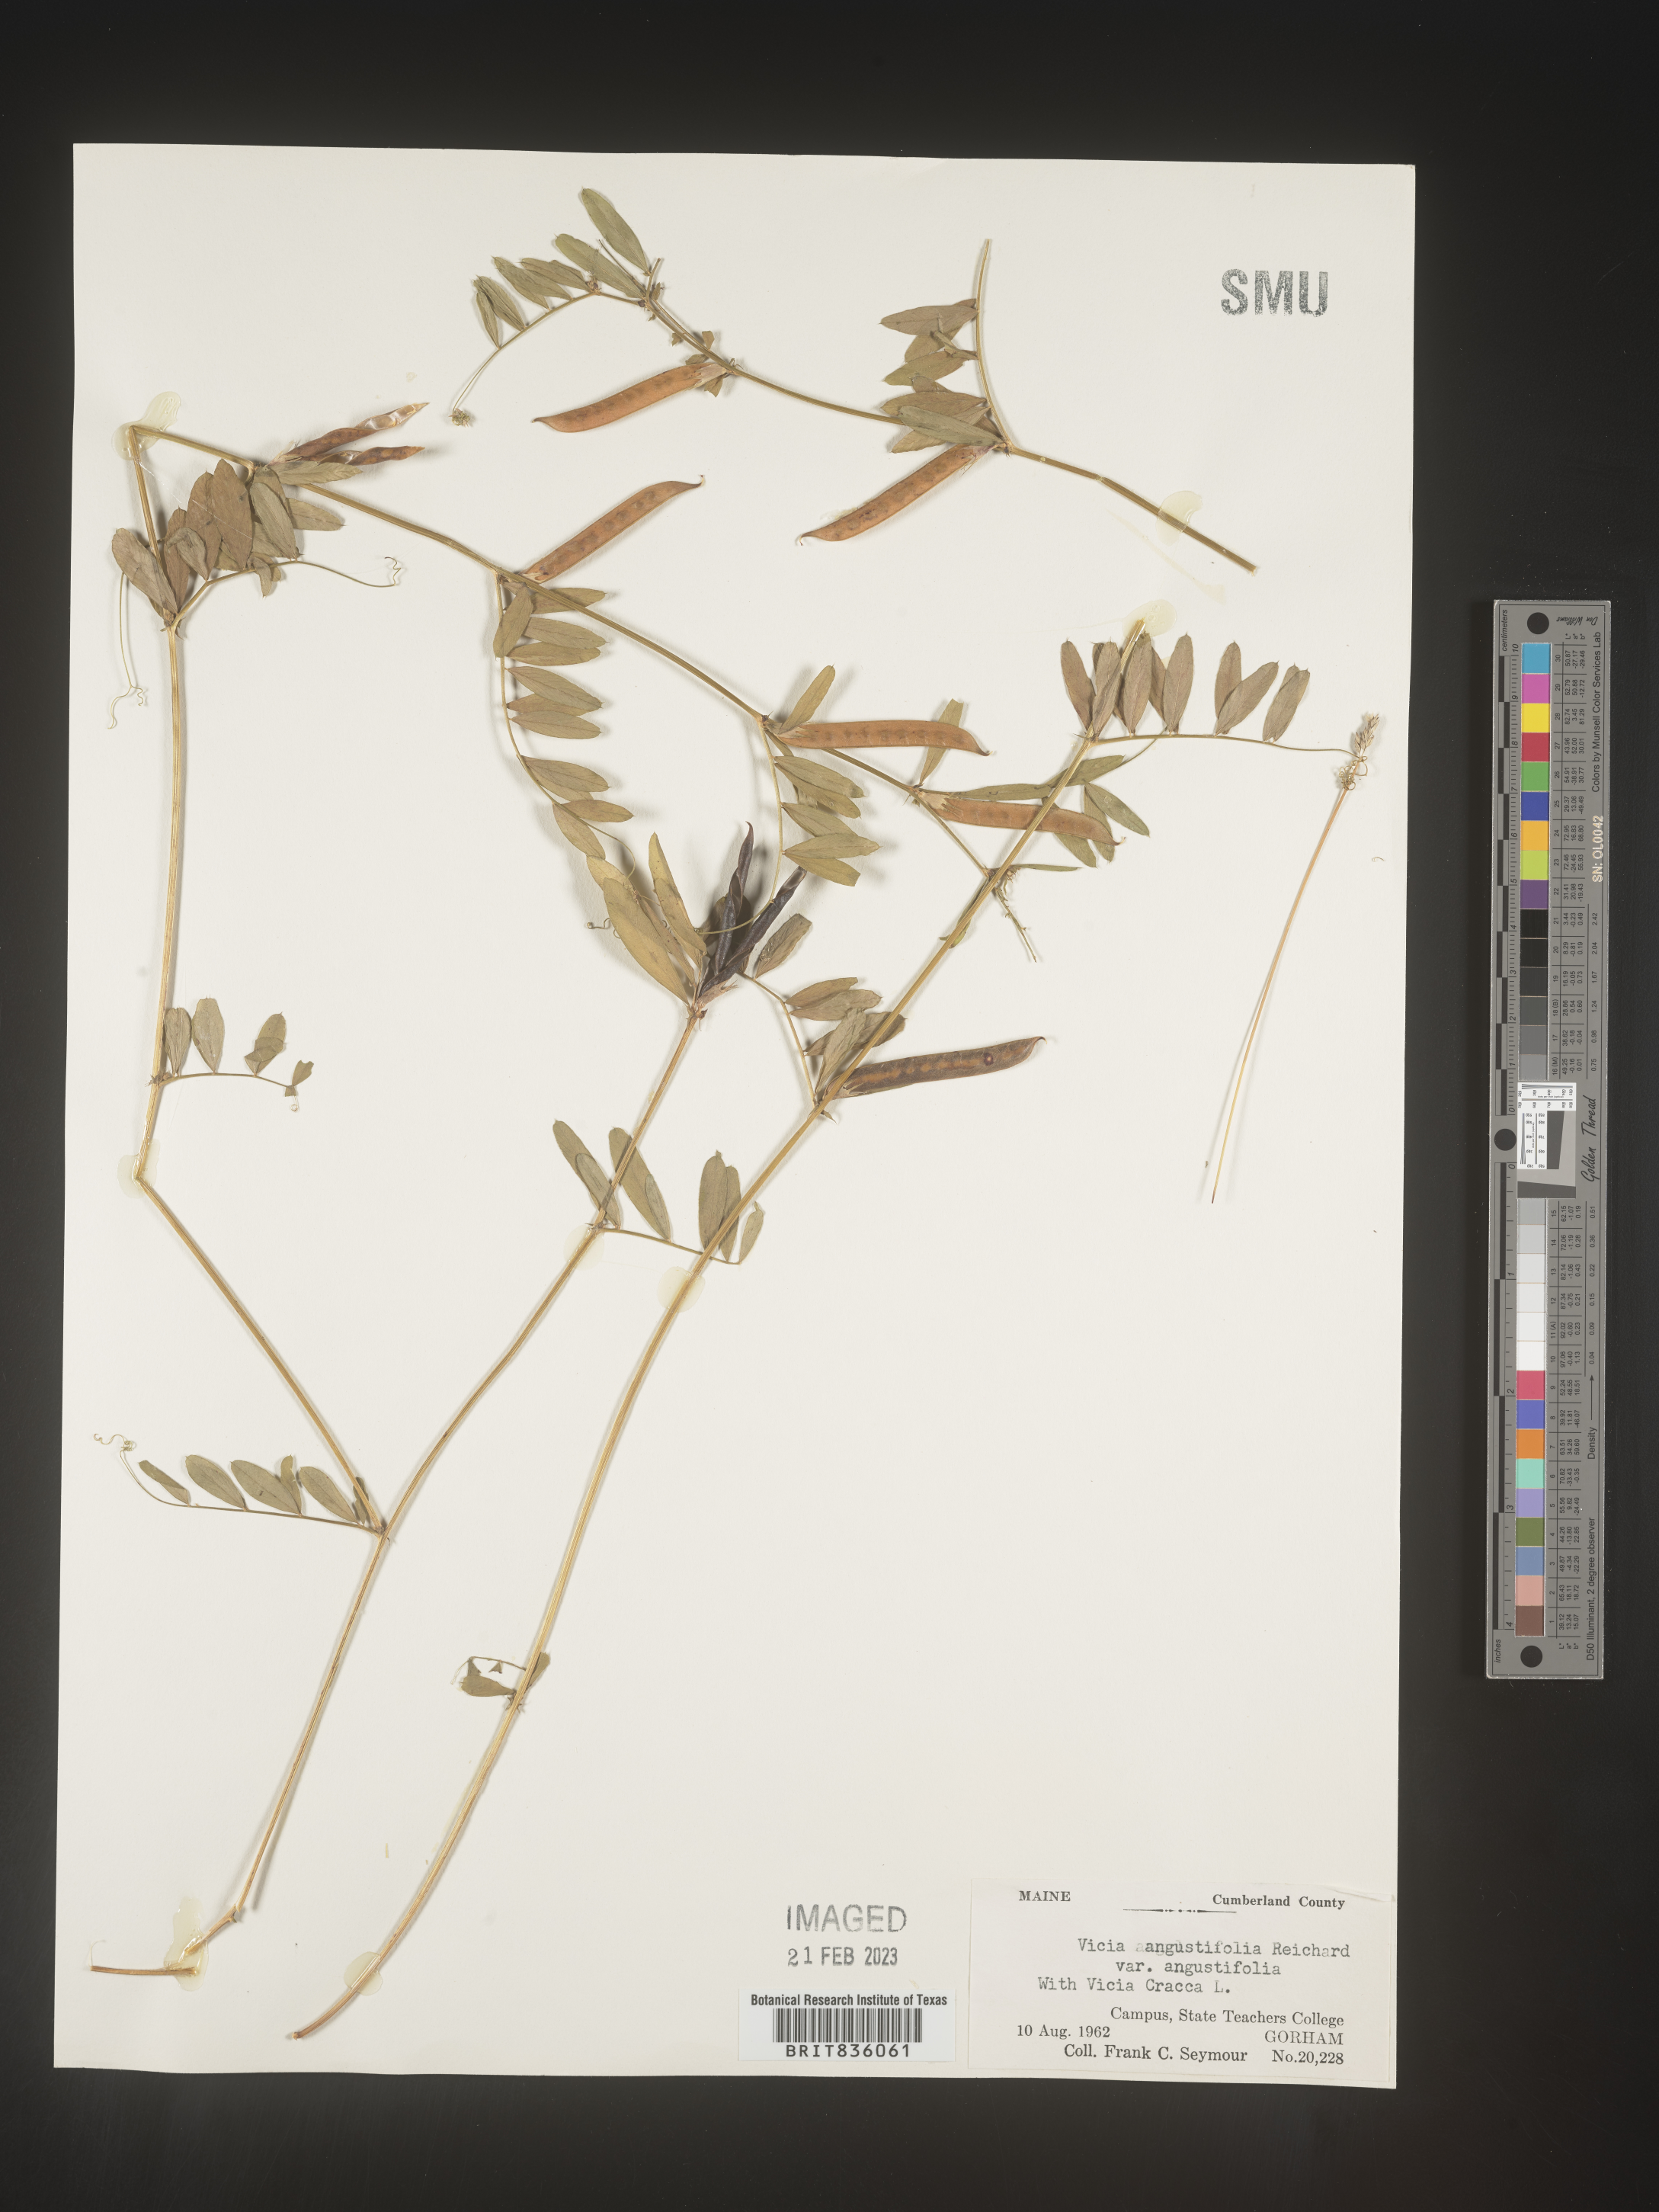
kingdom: Plantae
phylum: Tracheophyta
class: Magnoliopsida
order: Fabales
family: Fabaceae
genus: Vicia
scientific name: Vicia sativa
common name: Garden vetch
